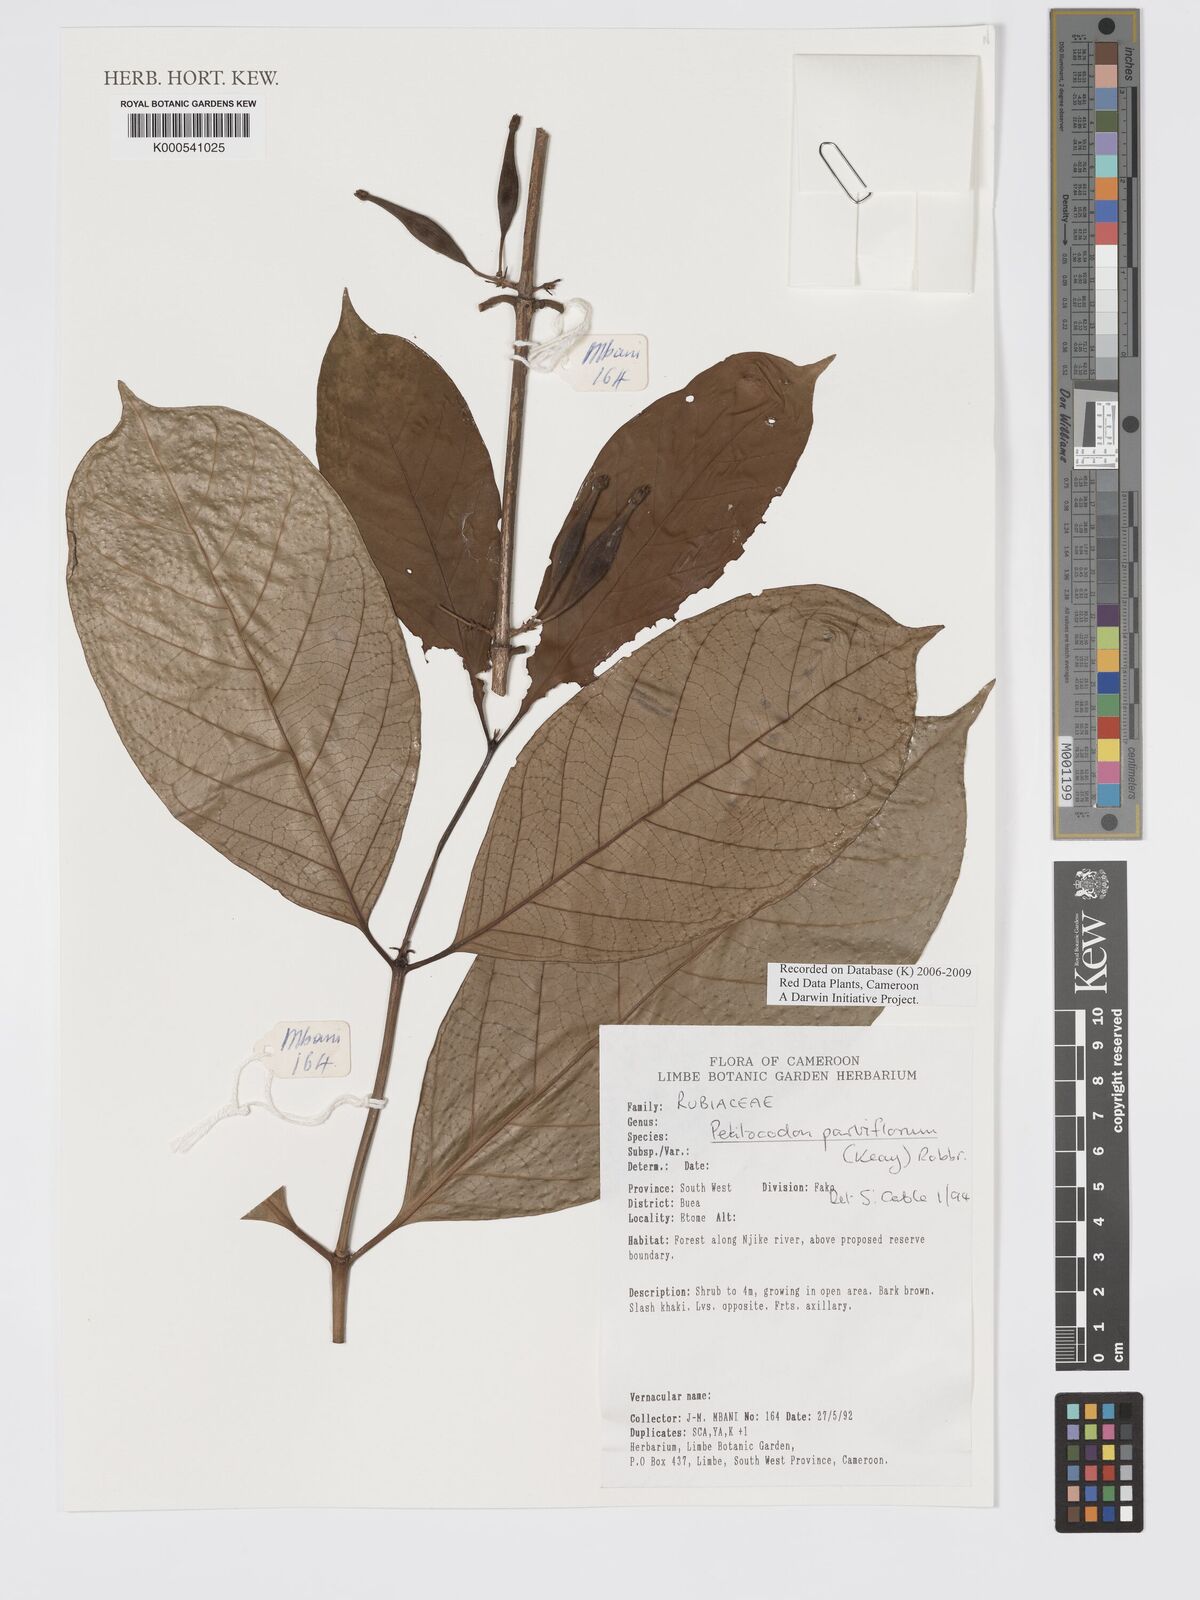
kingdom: Plantae
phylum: Tracheophyta
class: Magnoliopsida
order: Gentianales
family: Rubiaceae
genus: Petitiocodon
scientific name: Petitiocodon parviflorum
